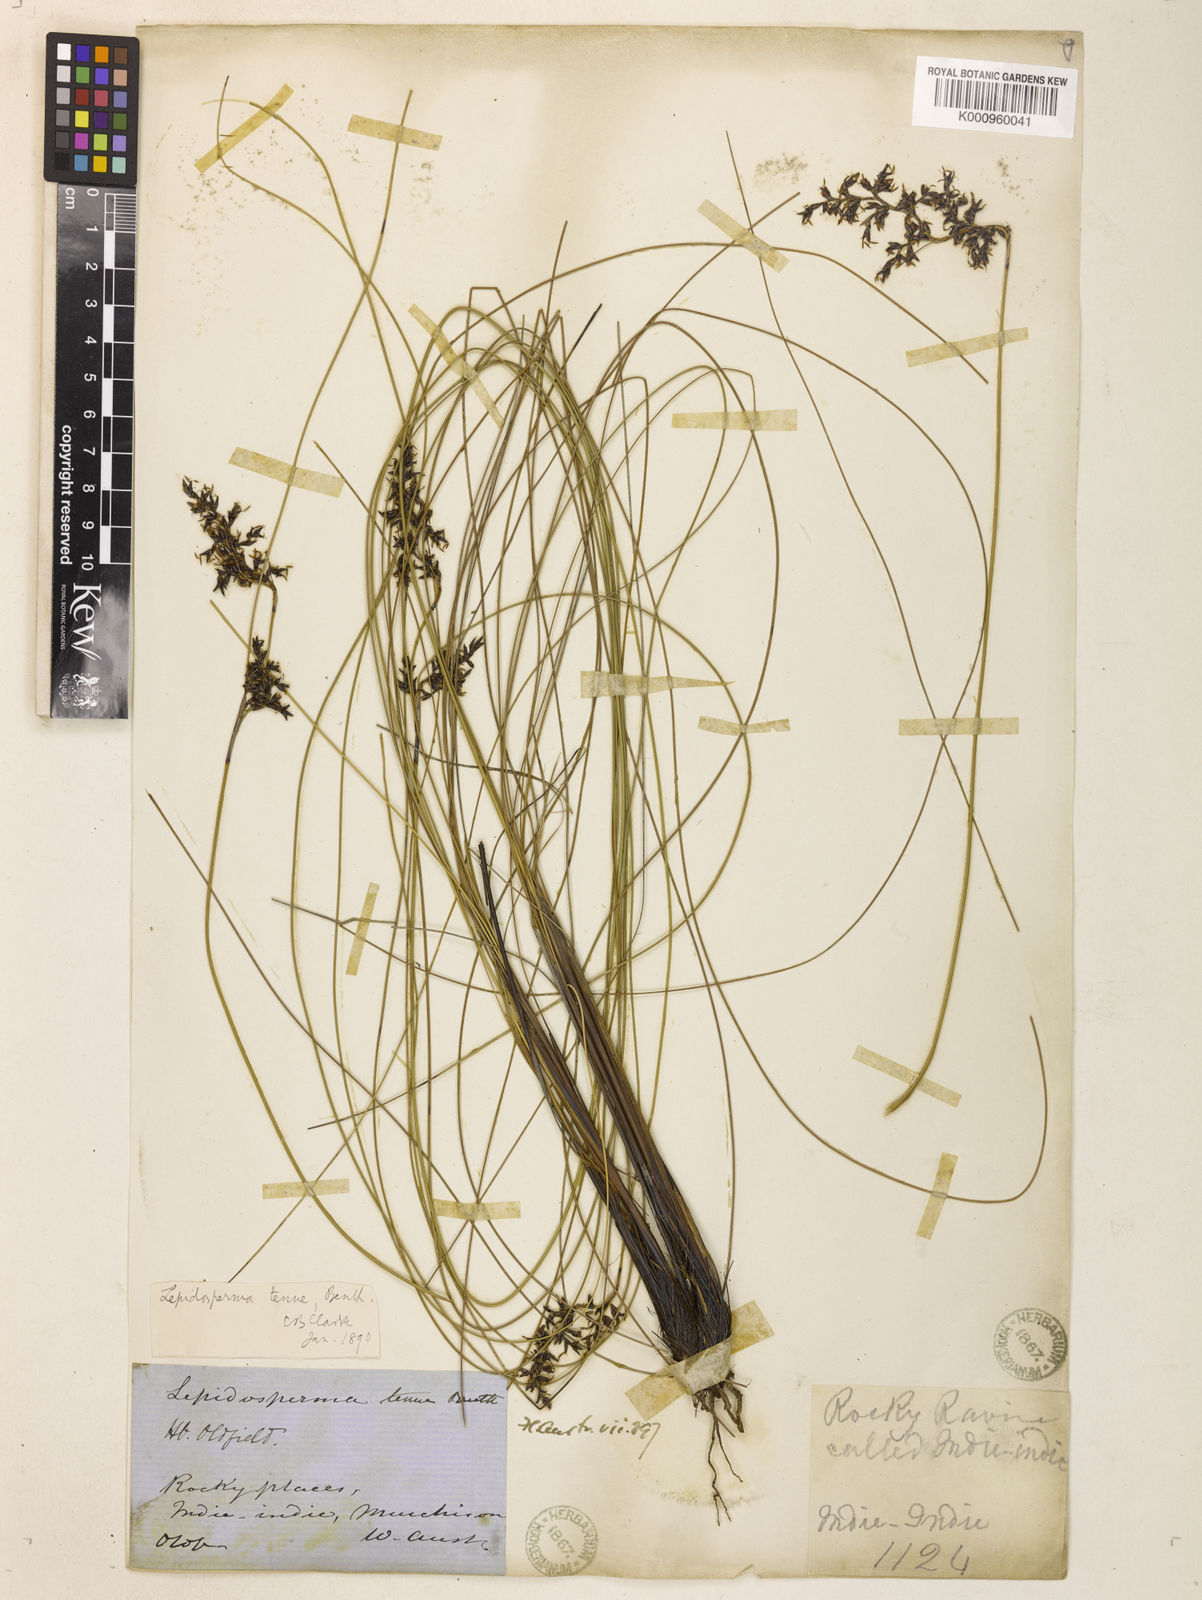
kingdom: Plantae
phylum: Tracheophyta
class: Liliopsida
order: Poales
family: Cyperaceae
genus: Lepidosperma
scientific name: Lepidosperma tenue
